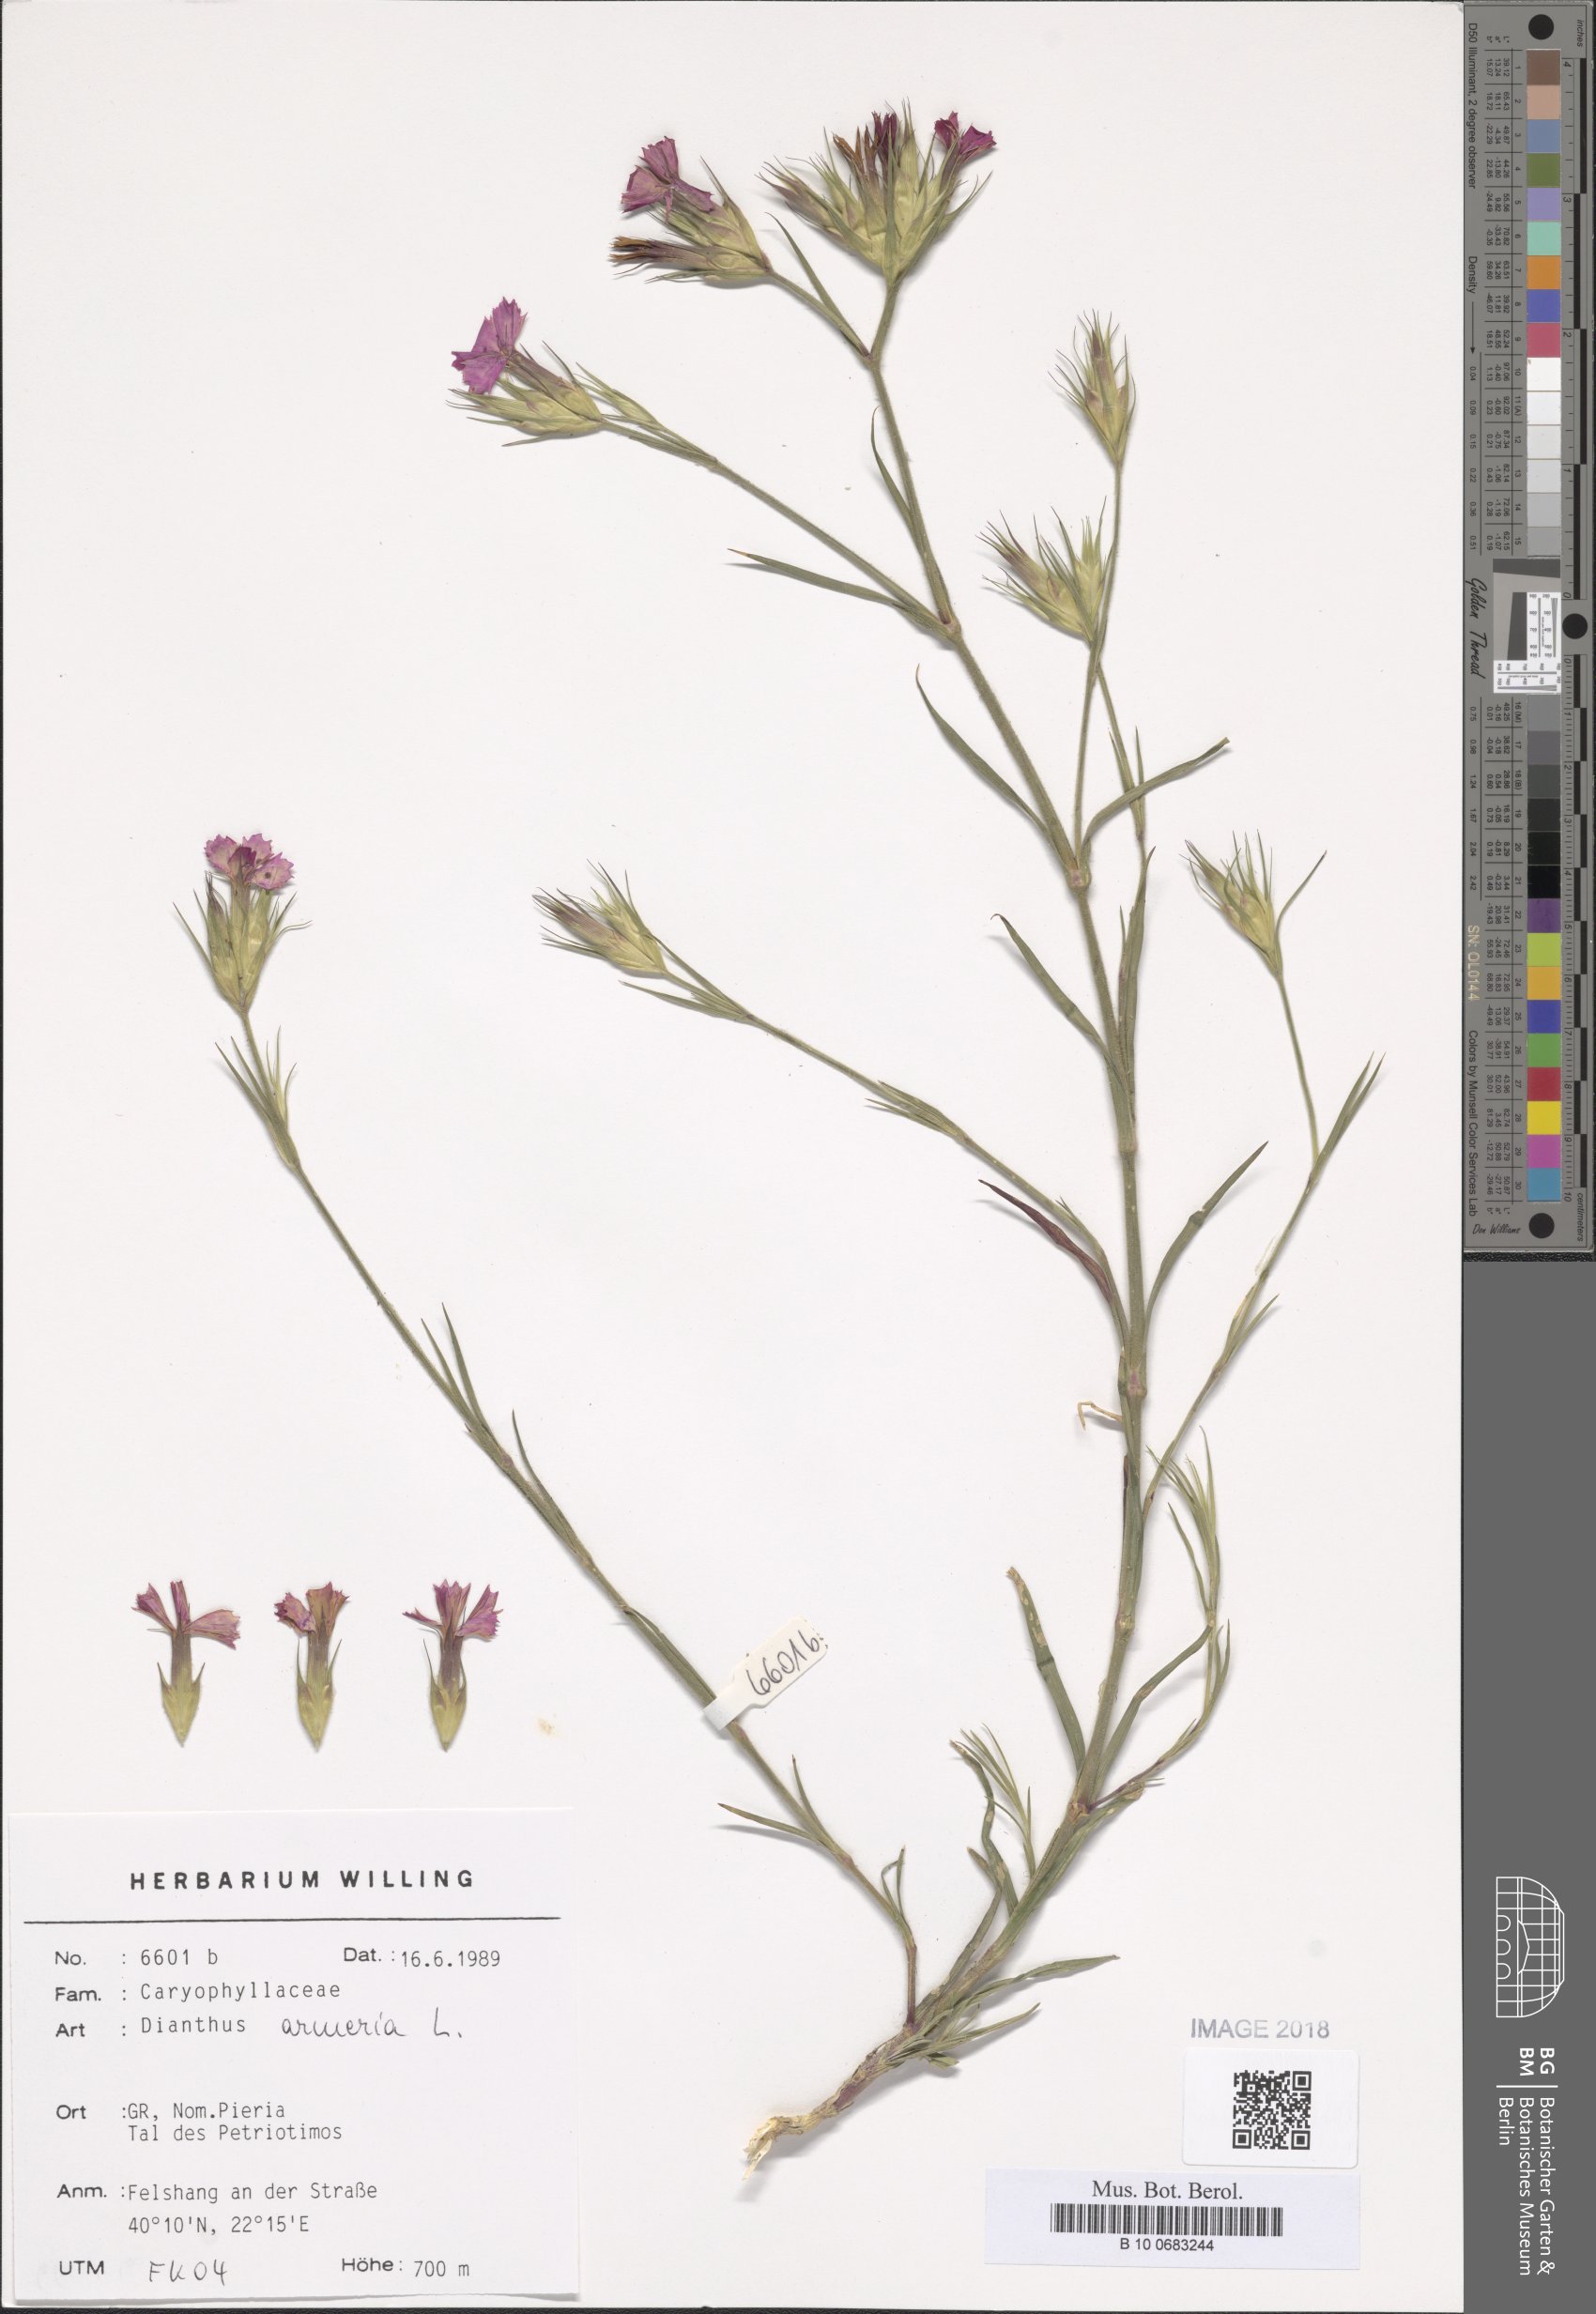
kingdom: Plantae
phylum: Tracheophyta
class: Magnoliopsida
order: Caryophyllales
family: Caryophyllaceae
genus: Dianthus
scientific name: Dianthus armeria
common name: Deptford pink
